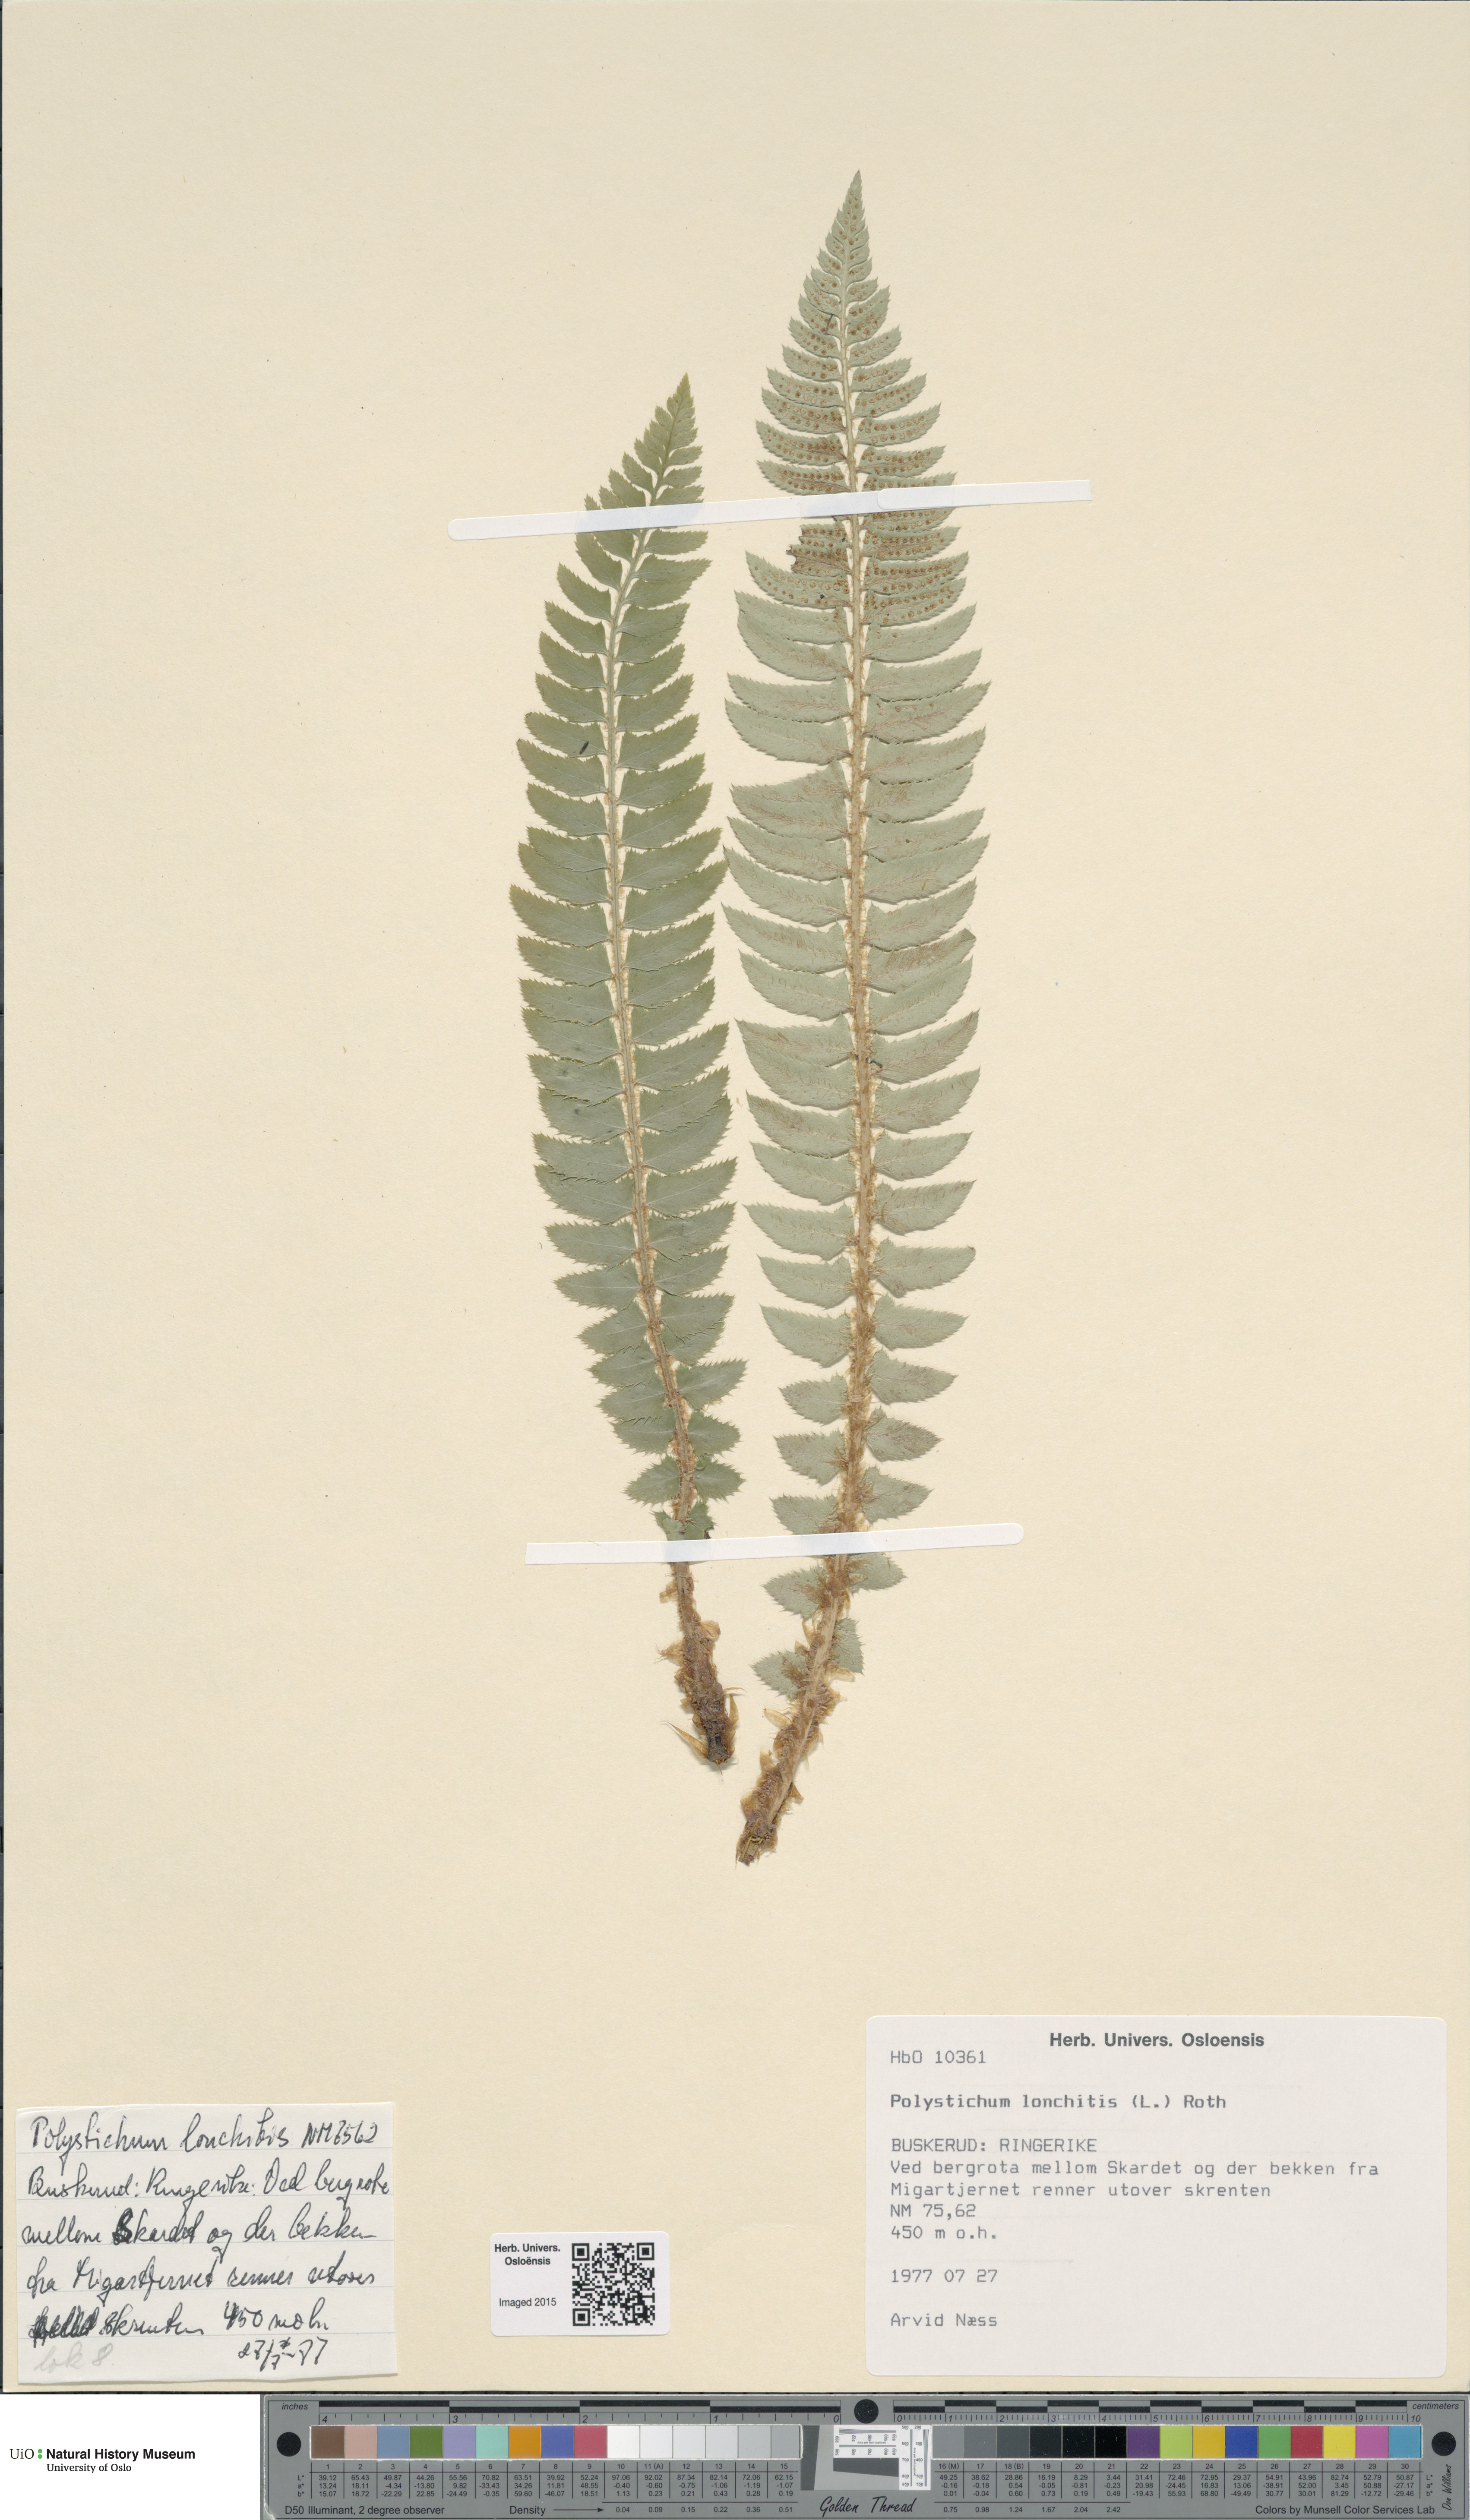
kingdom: Plantae
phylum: Tracheophyta
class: Polypodiopsida
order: Polypodiales
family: Dryopteridaceae
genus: Polystichum
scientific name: Polystichum lonchitis
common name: Holly fern
